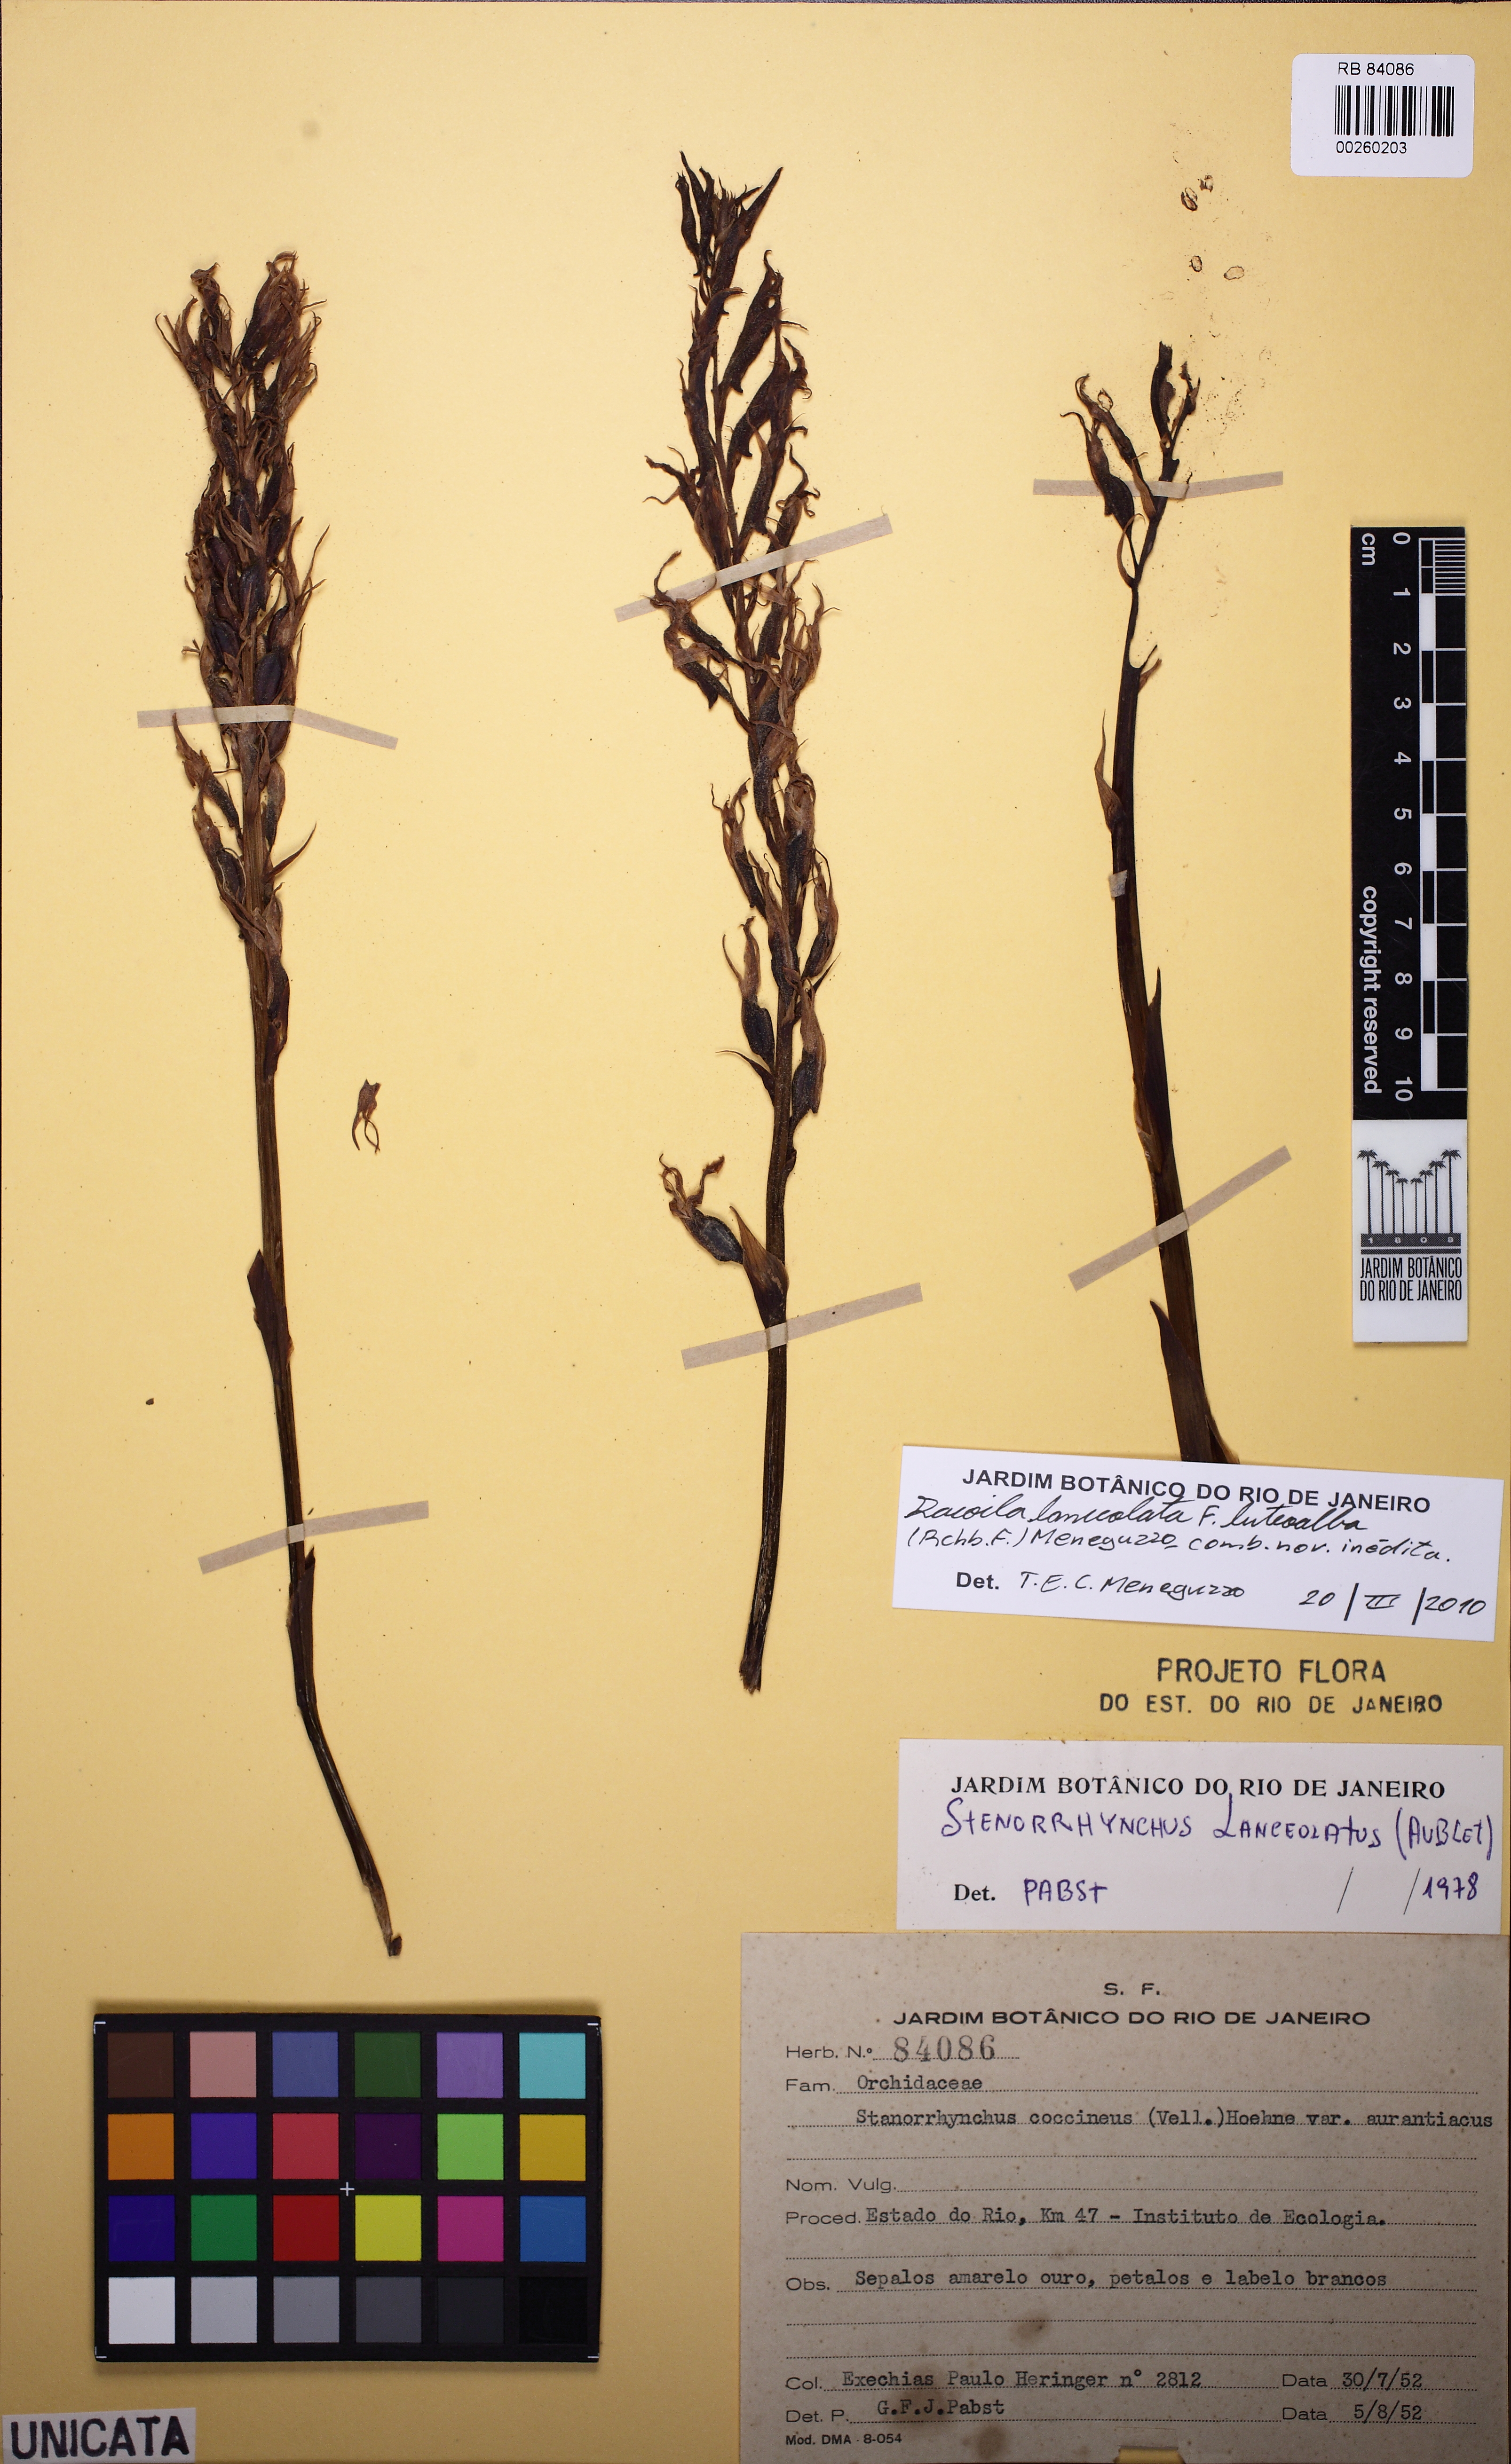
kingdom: Plantae
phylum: Tracheophyta
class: Liliopsida
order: Asparagales
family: Orchidaceae
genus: Sacoila
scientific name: Sacoila lanceolata
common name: Leafless beaked ladiestresses
